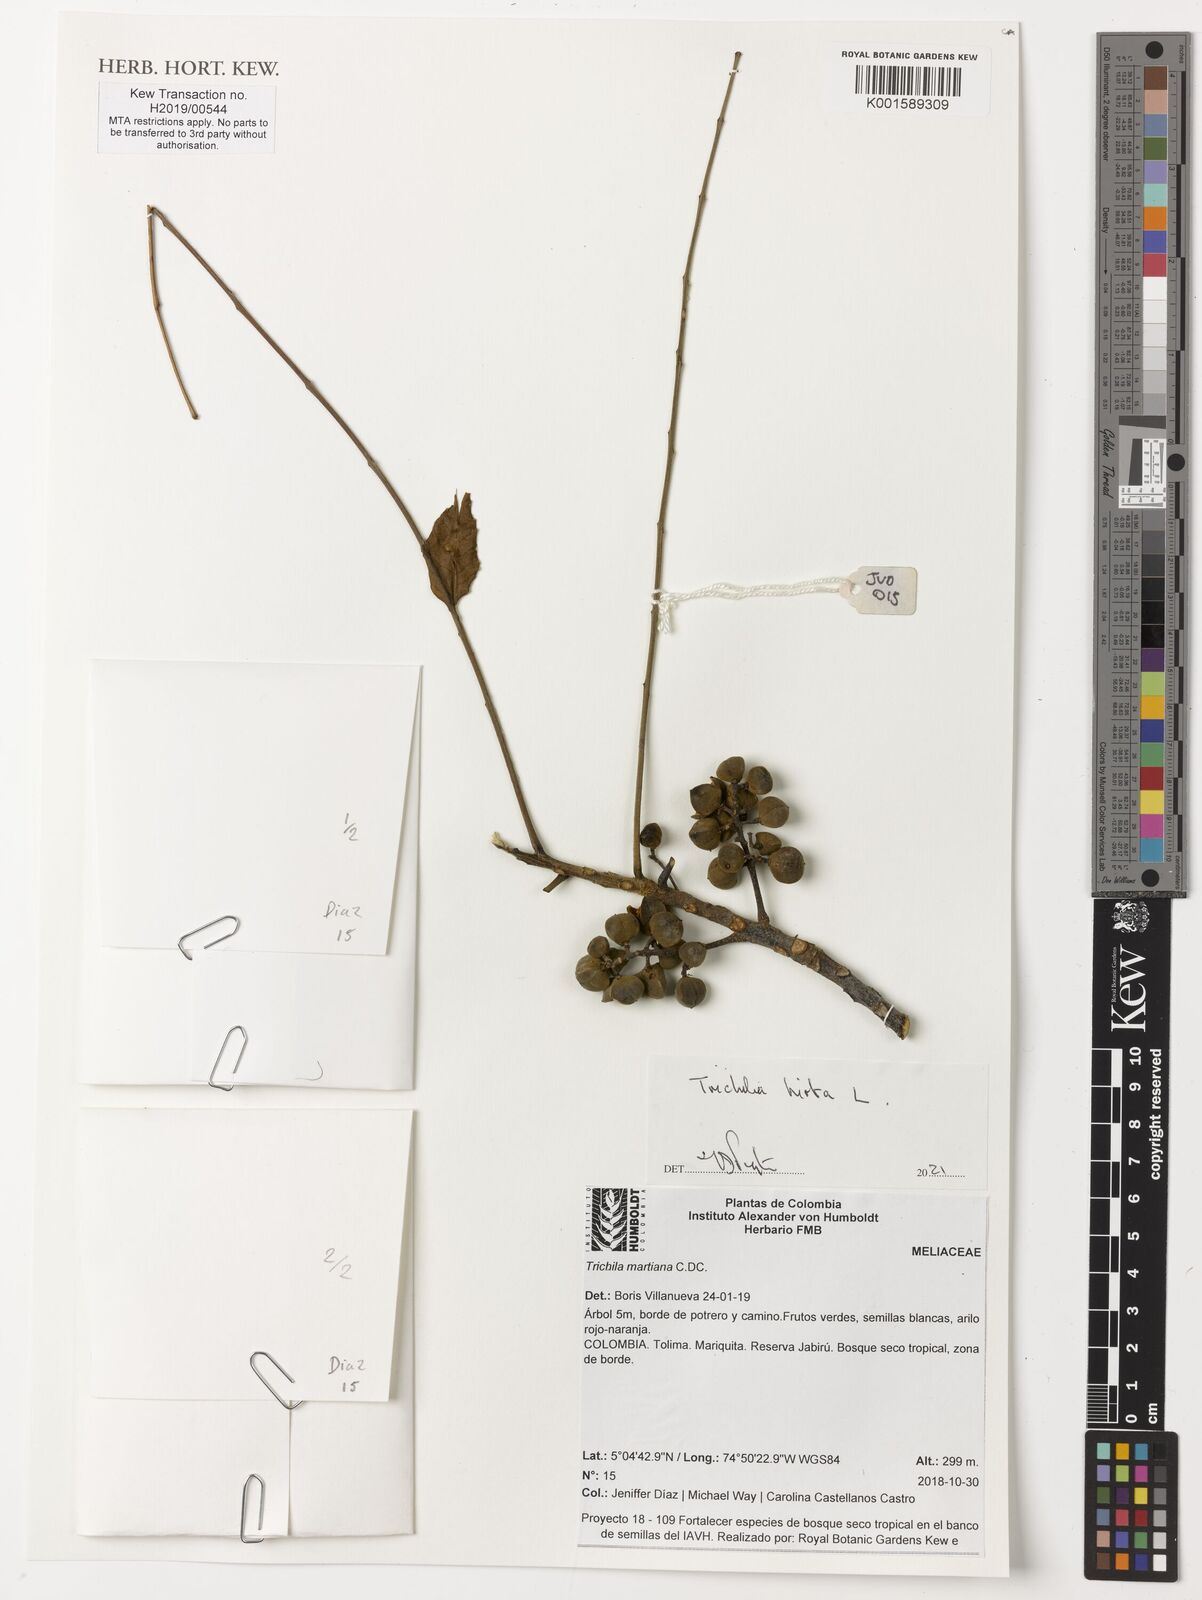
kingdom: Plantae
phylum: Tracheophyta
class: Magnoliopsida
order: Sapindales
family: Meliaceae
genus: Trichilia
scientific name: Trichilia martiana
